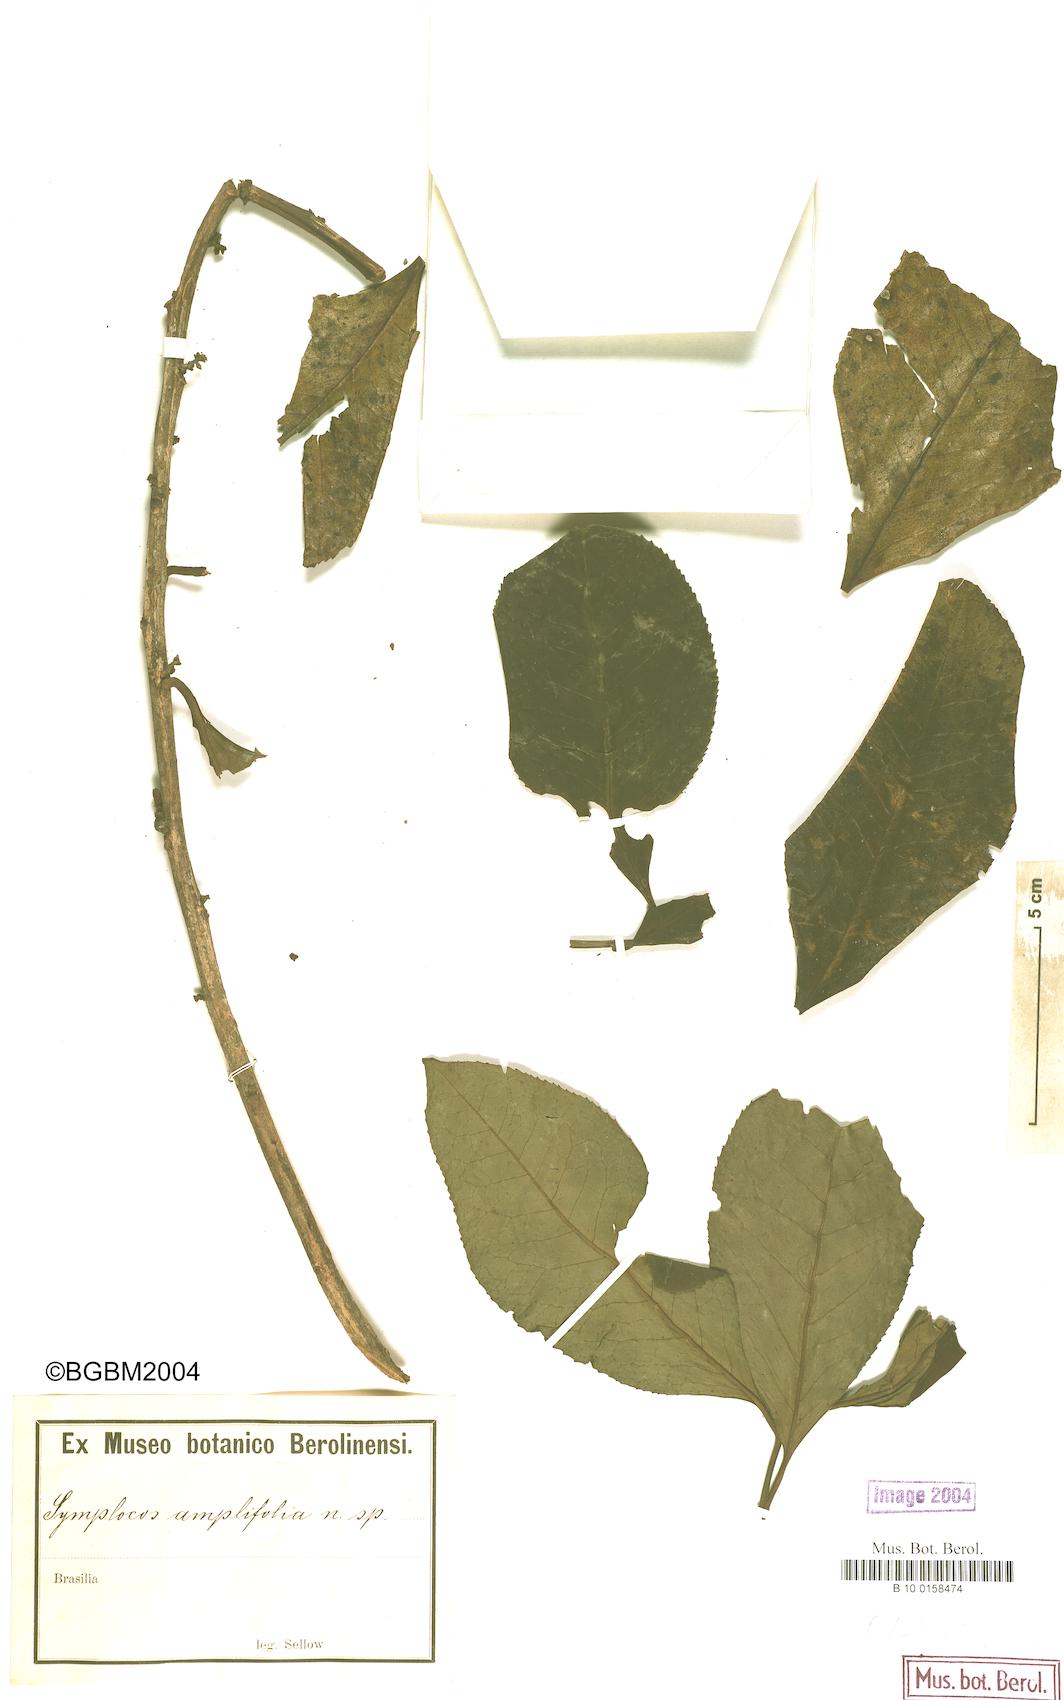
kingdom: Plantae
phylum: Tracheophyta
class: Magnoliopsida
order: Ericales
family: Symplocaceae
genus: Symplocos
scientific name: Symplocos amplifolia
